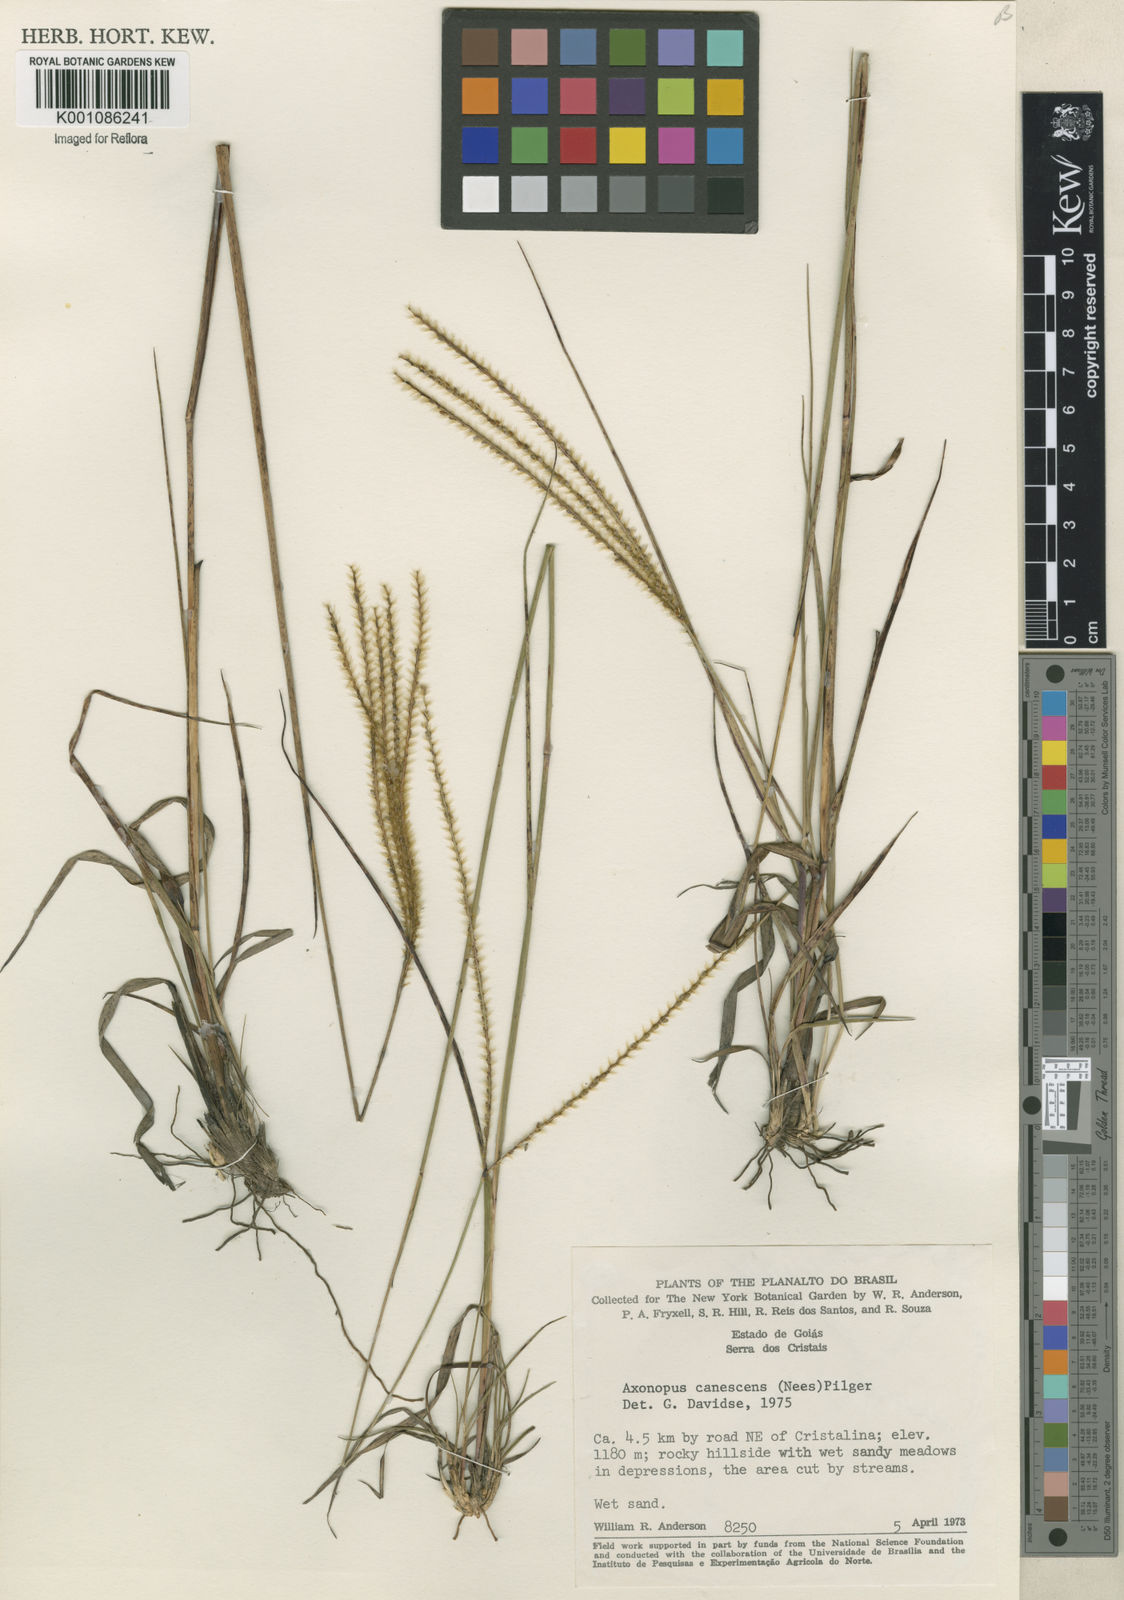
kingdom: Plantae
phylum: Tracheophyta
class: Liliopsida
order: Poales
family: Poaceae
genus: Axonopus
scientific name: Axonopus aureus
